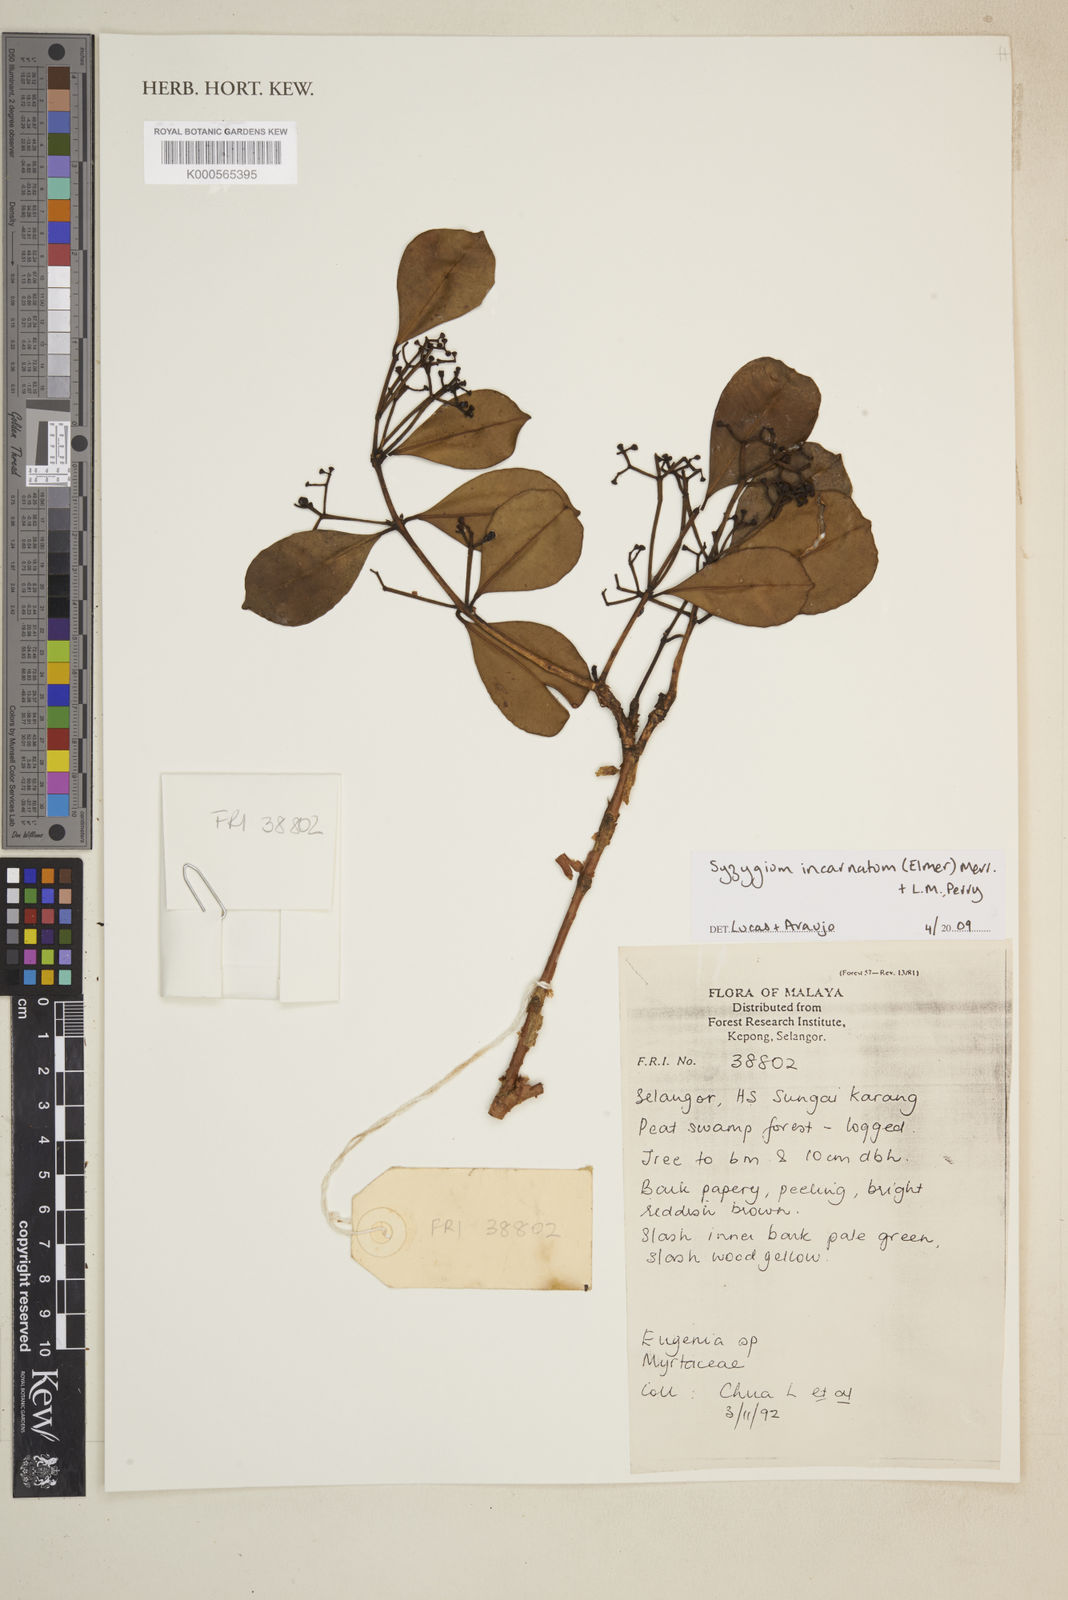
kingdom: Plantae
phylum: Tracheophyta
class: Magnoliopsida
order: Myrtales
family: Myrtaceae
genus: Syzygium
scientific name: Syzygium incarnatum
